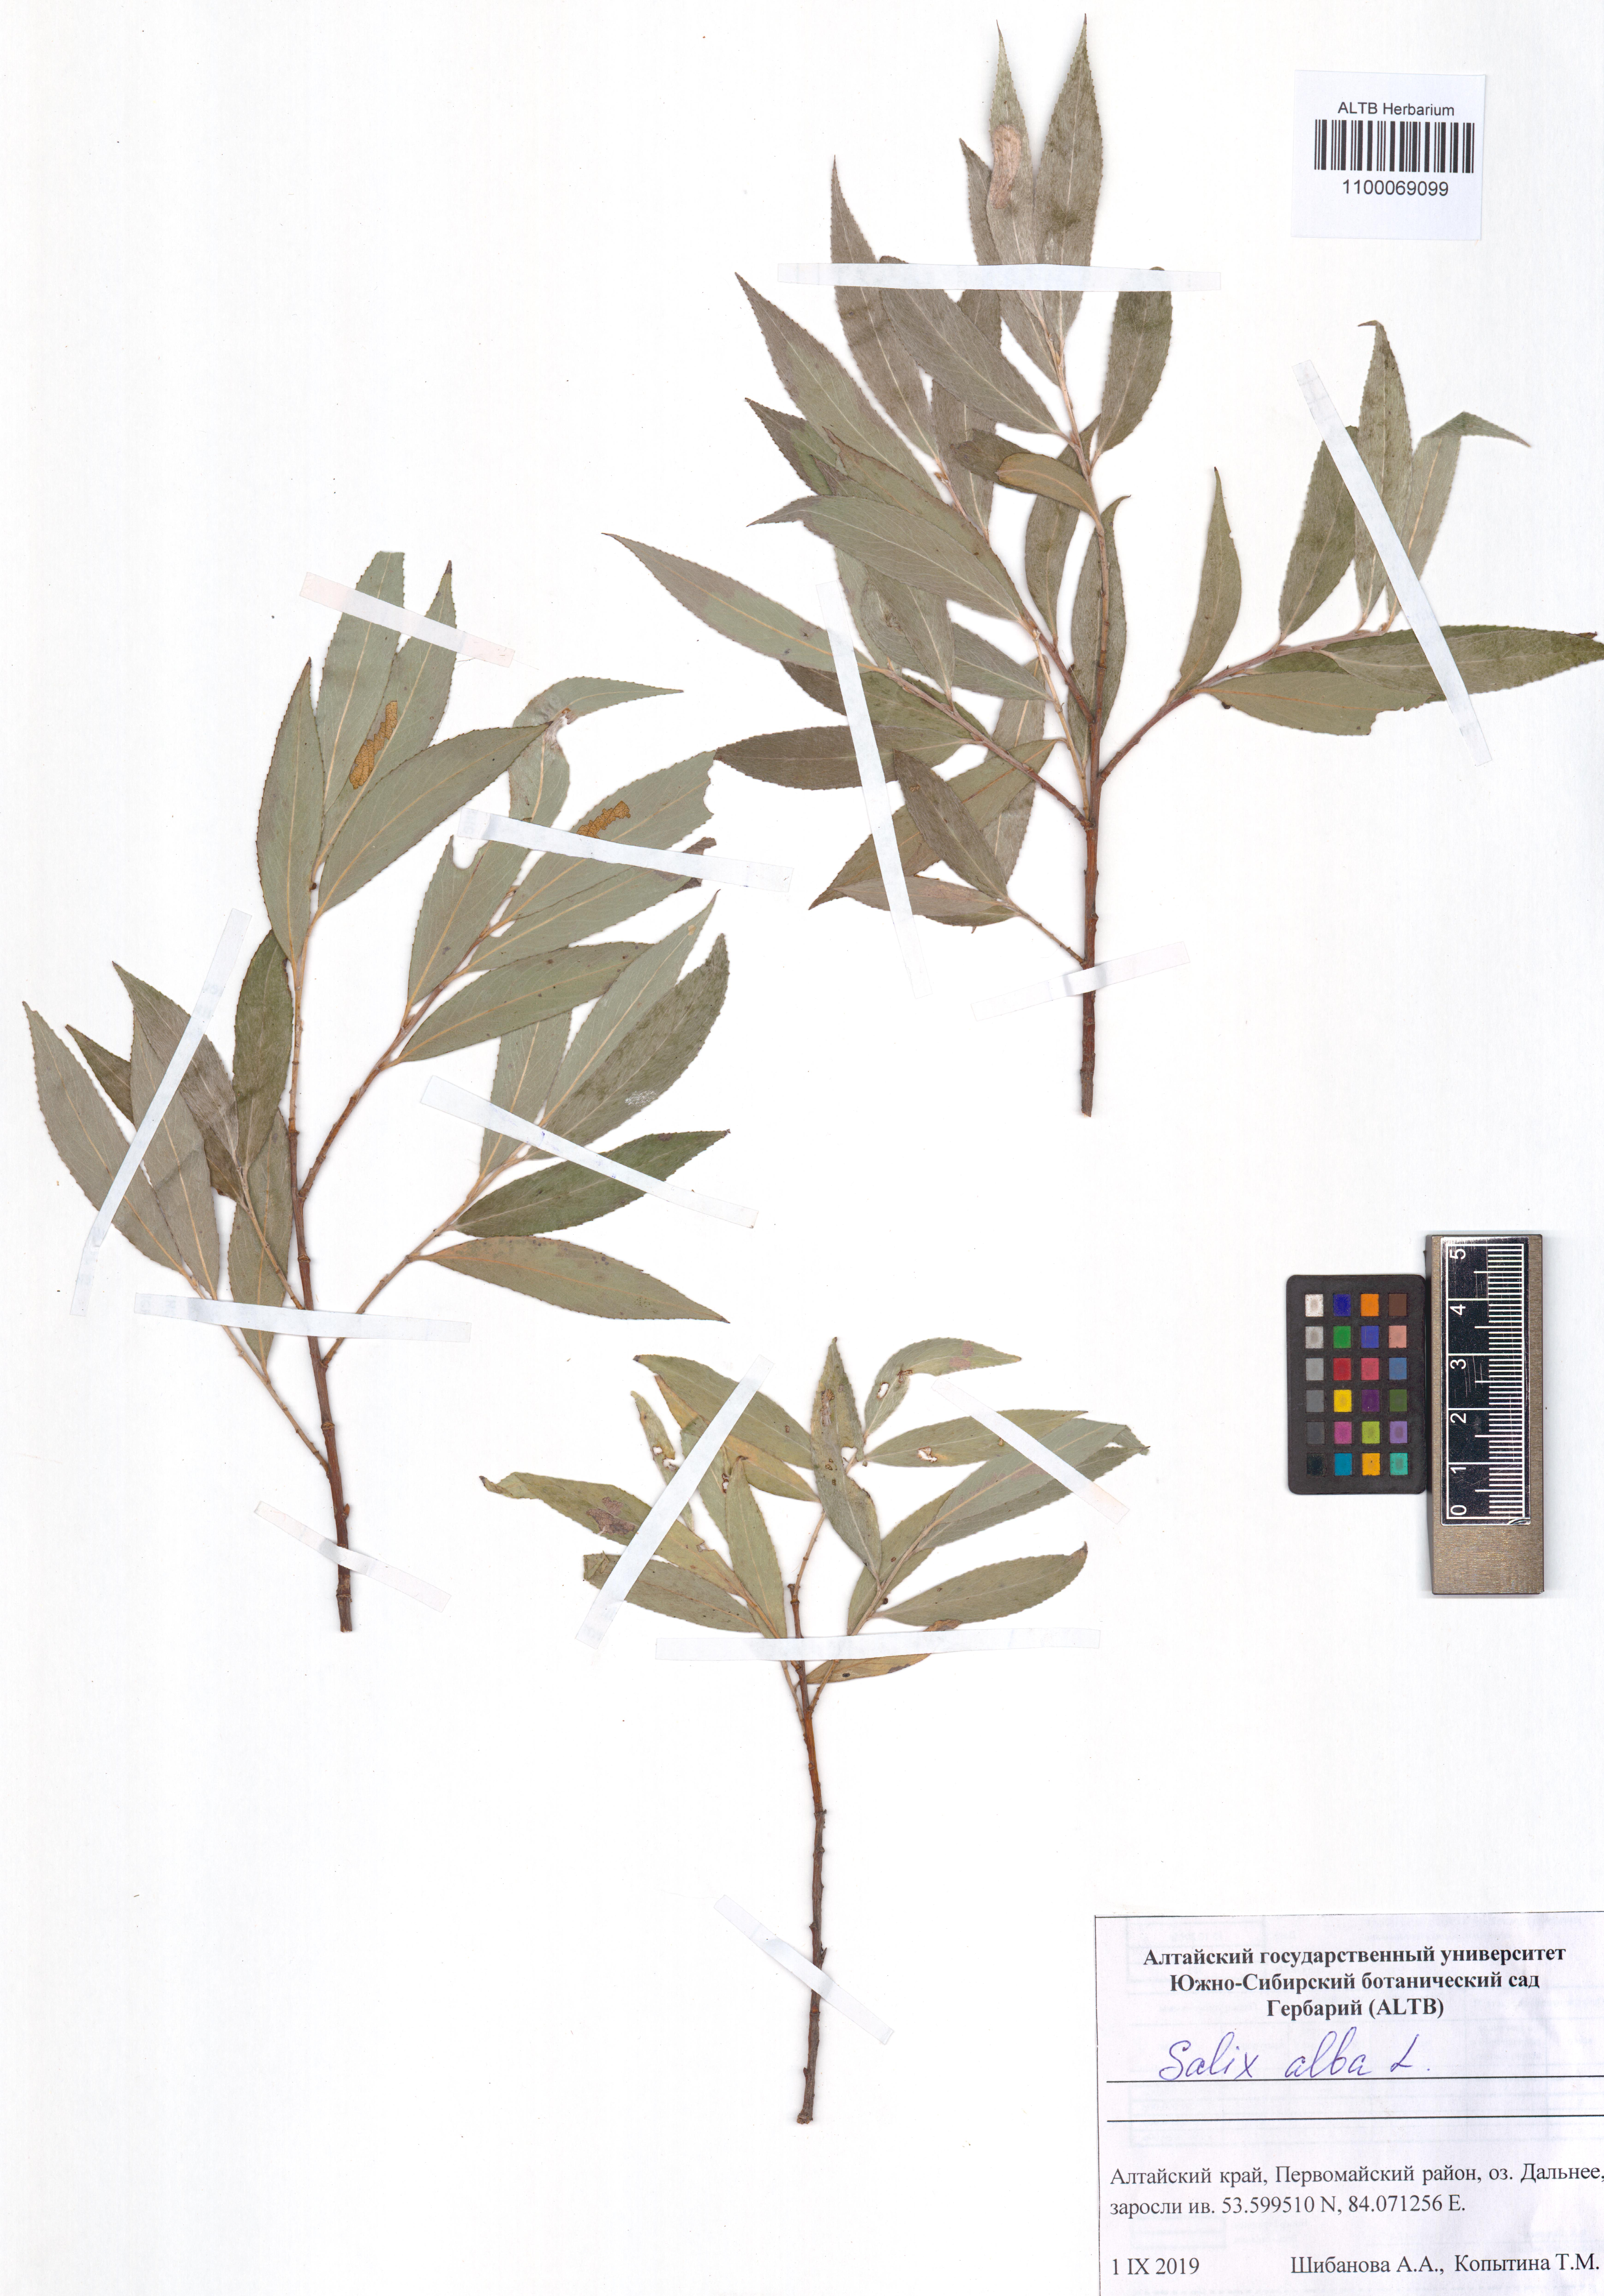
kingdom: Plantae
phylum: Tracheophyta
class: Magnoliopsida
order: Malpighiales
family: Salicaceae
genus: Salix
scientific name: Salix alba
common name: White willow
